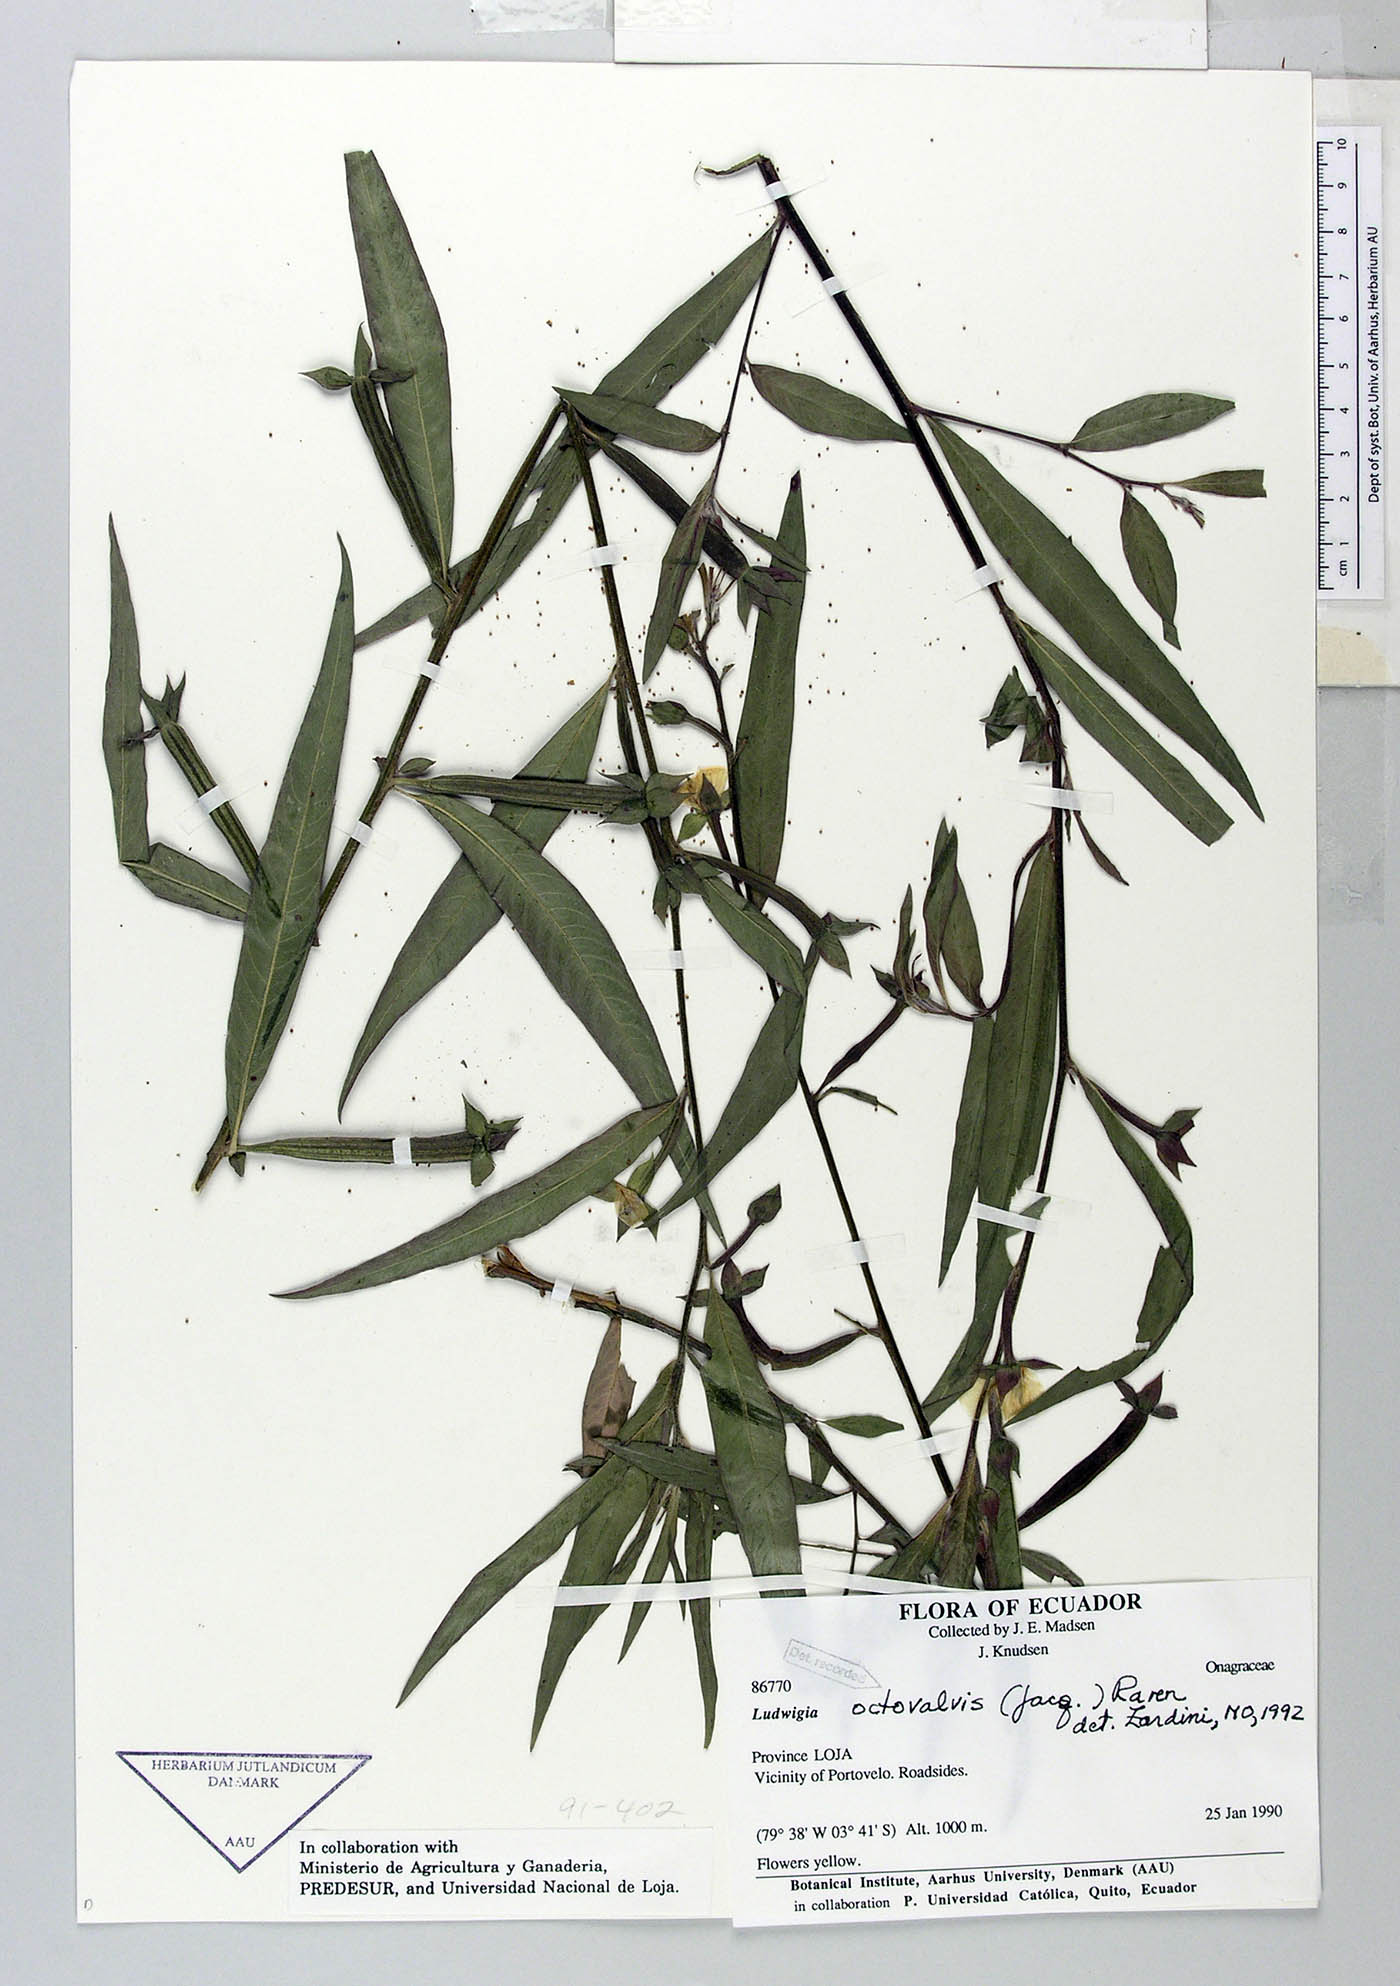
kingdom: Plantae
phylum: Tracheophyta
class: Magnoliopsida
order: Myrtales
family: Onagraceae
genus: Ludwigia
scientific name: Ludwigia octovalvis
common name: Water-primrose
